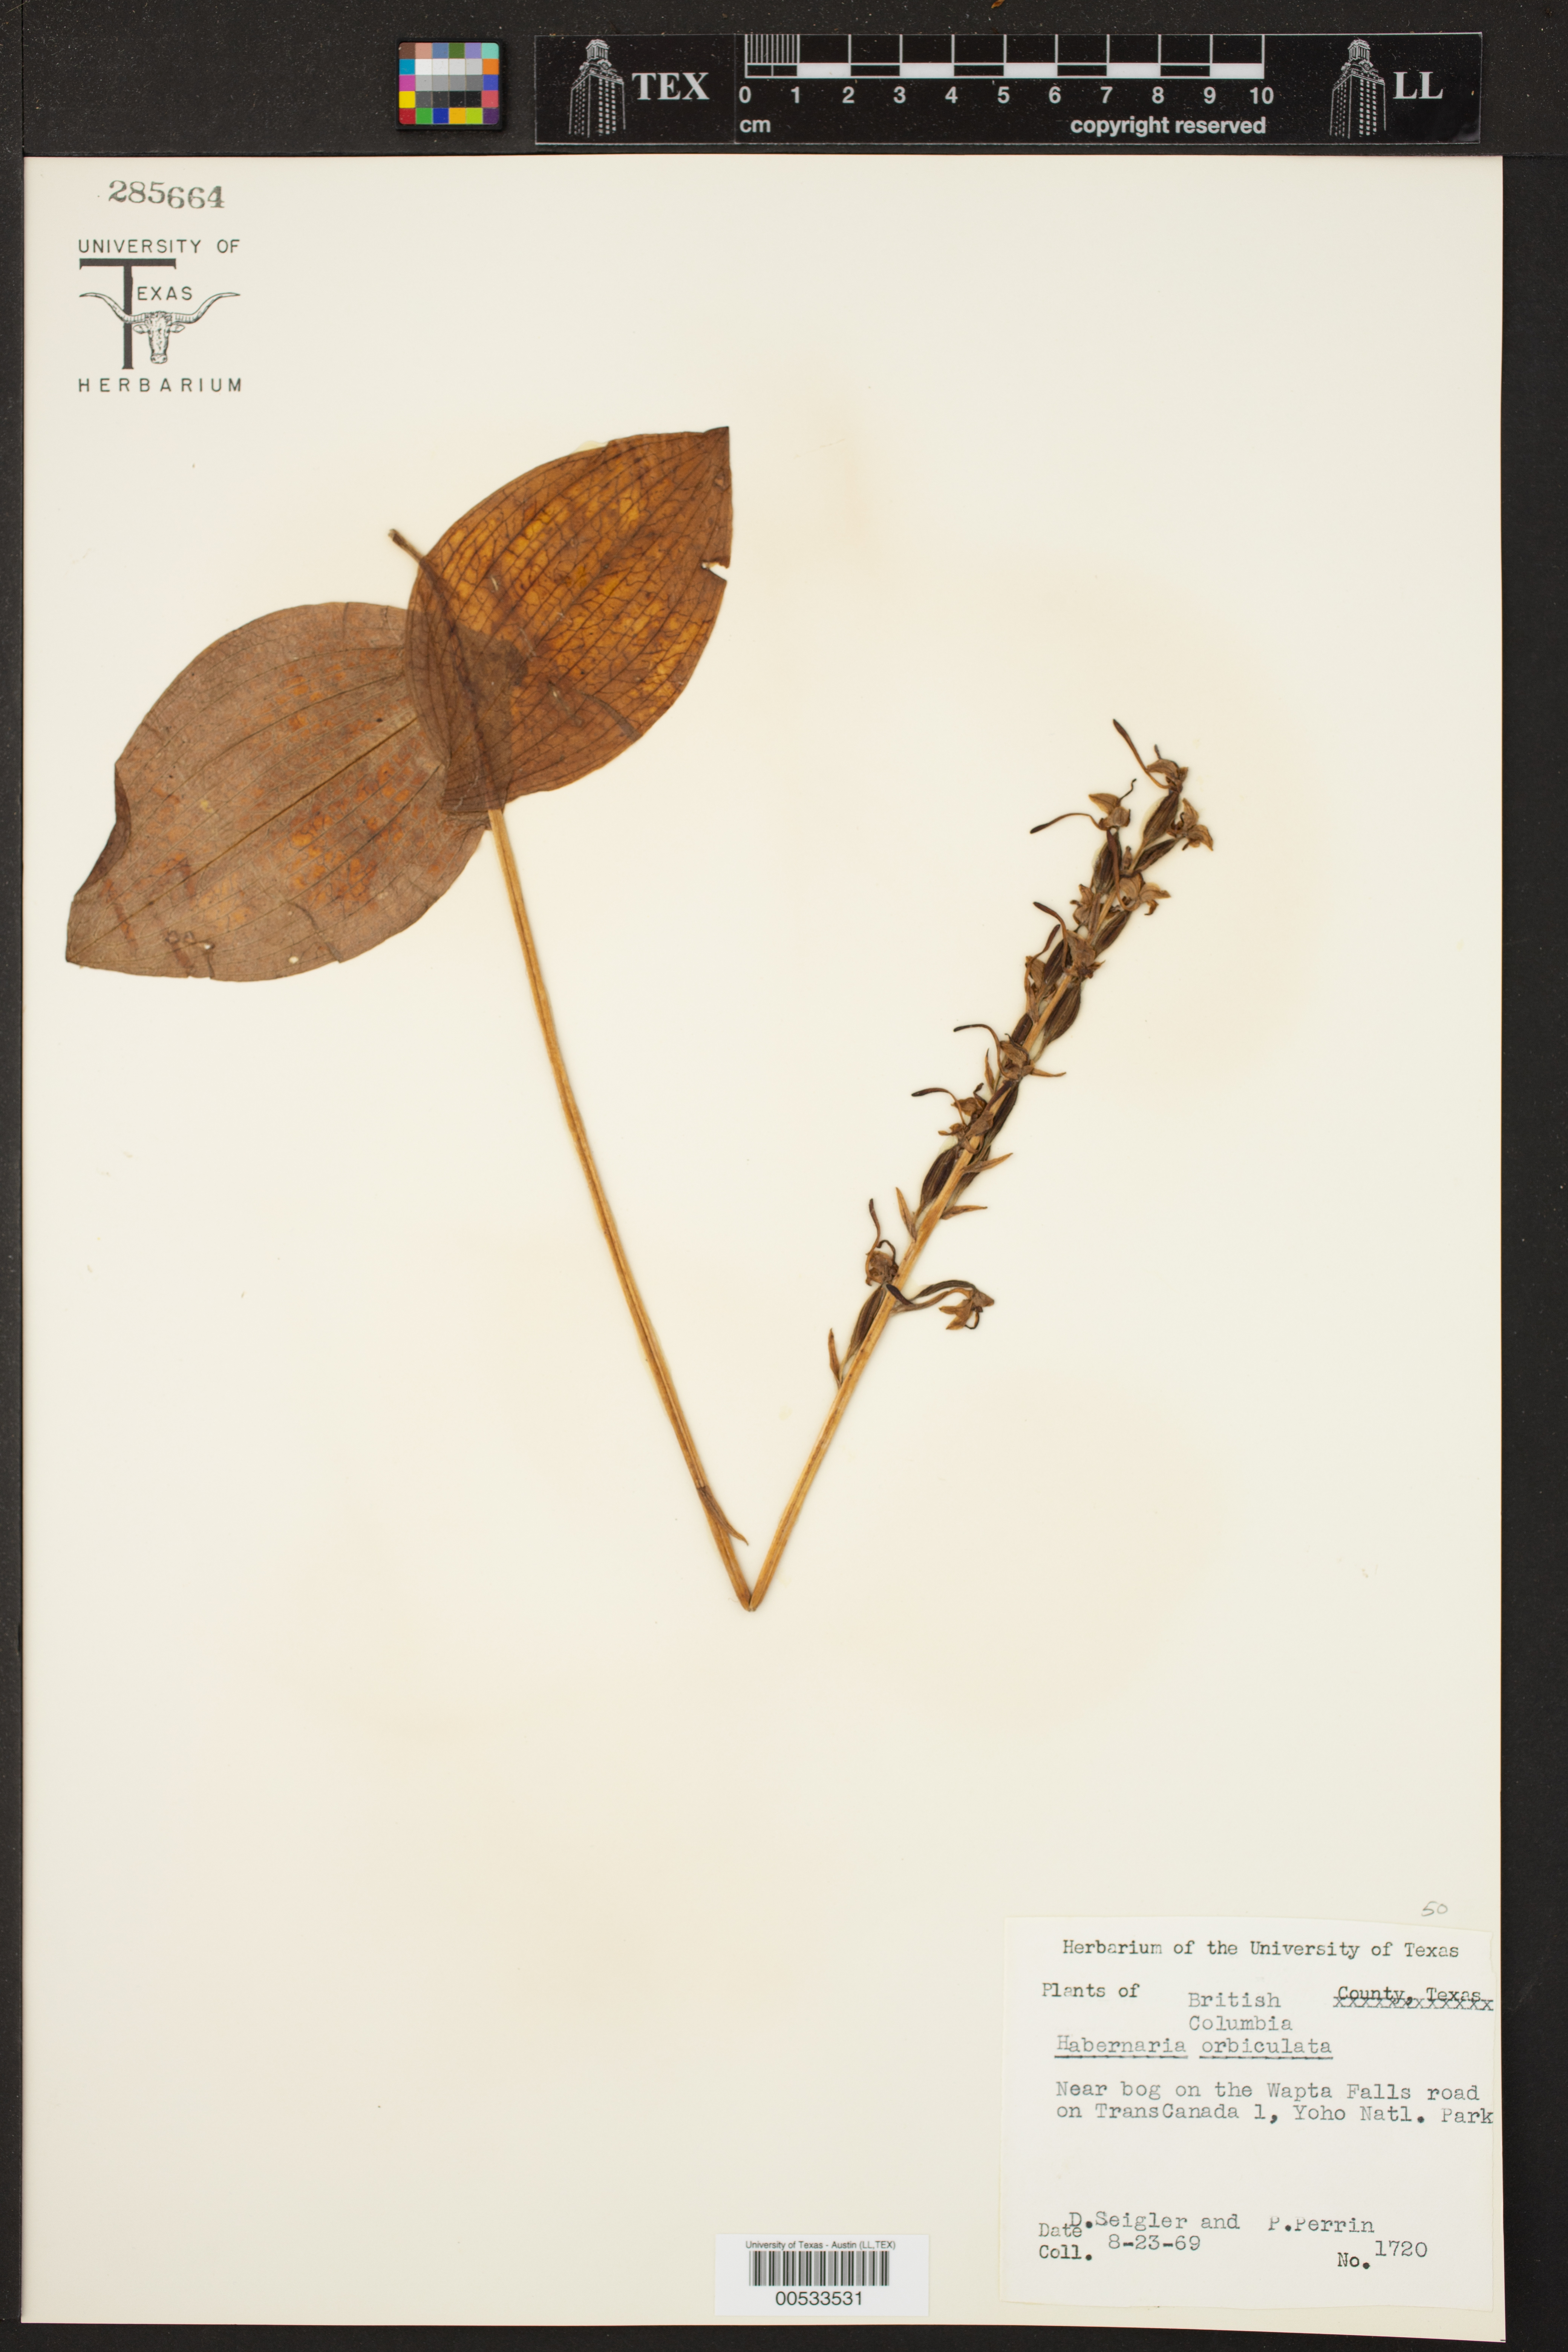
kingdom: Plantae
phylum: Tracheophyta
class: Liliopsida
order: Asparagales
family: Orchidaceae
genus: Platanthera
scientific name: Platanthera orbiculata
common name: Large round-leaved orchid
